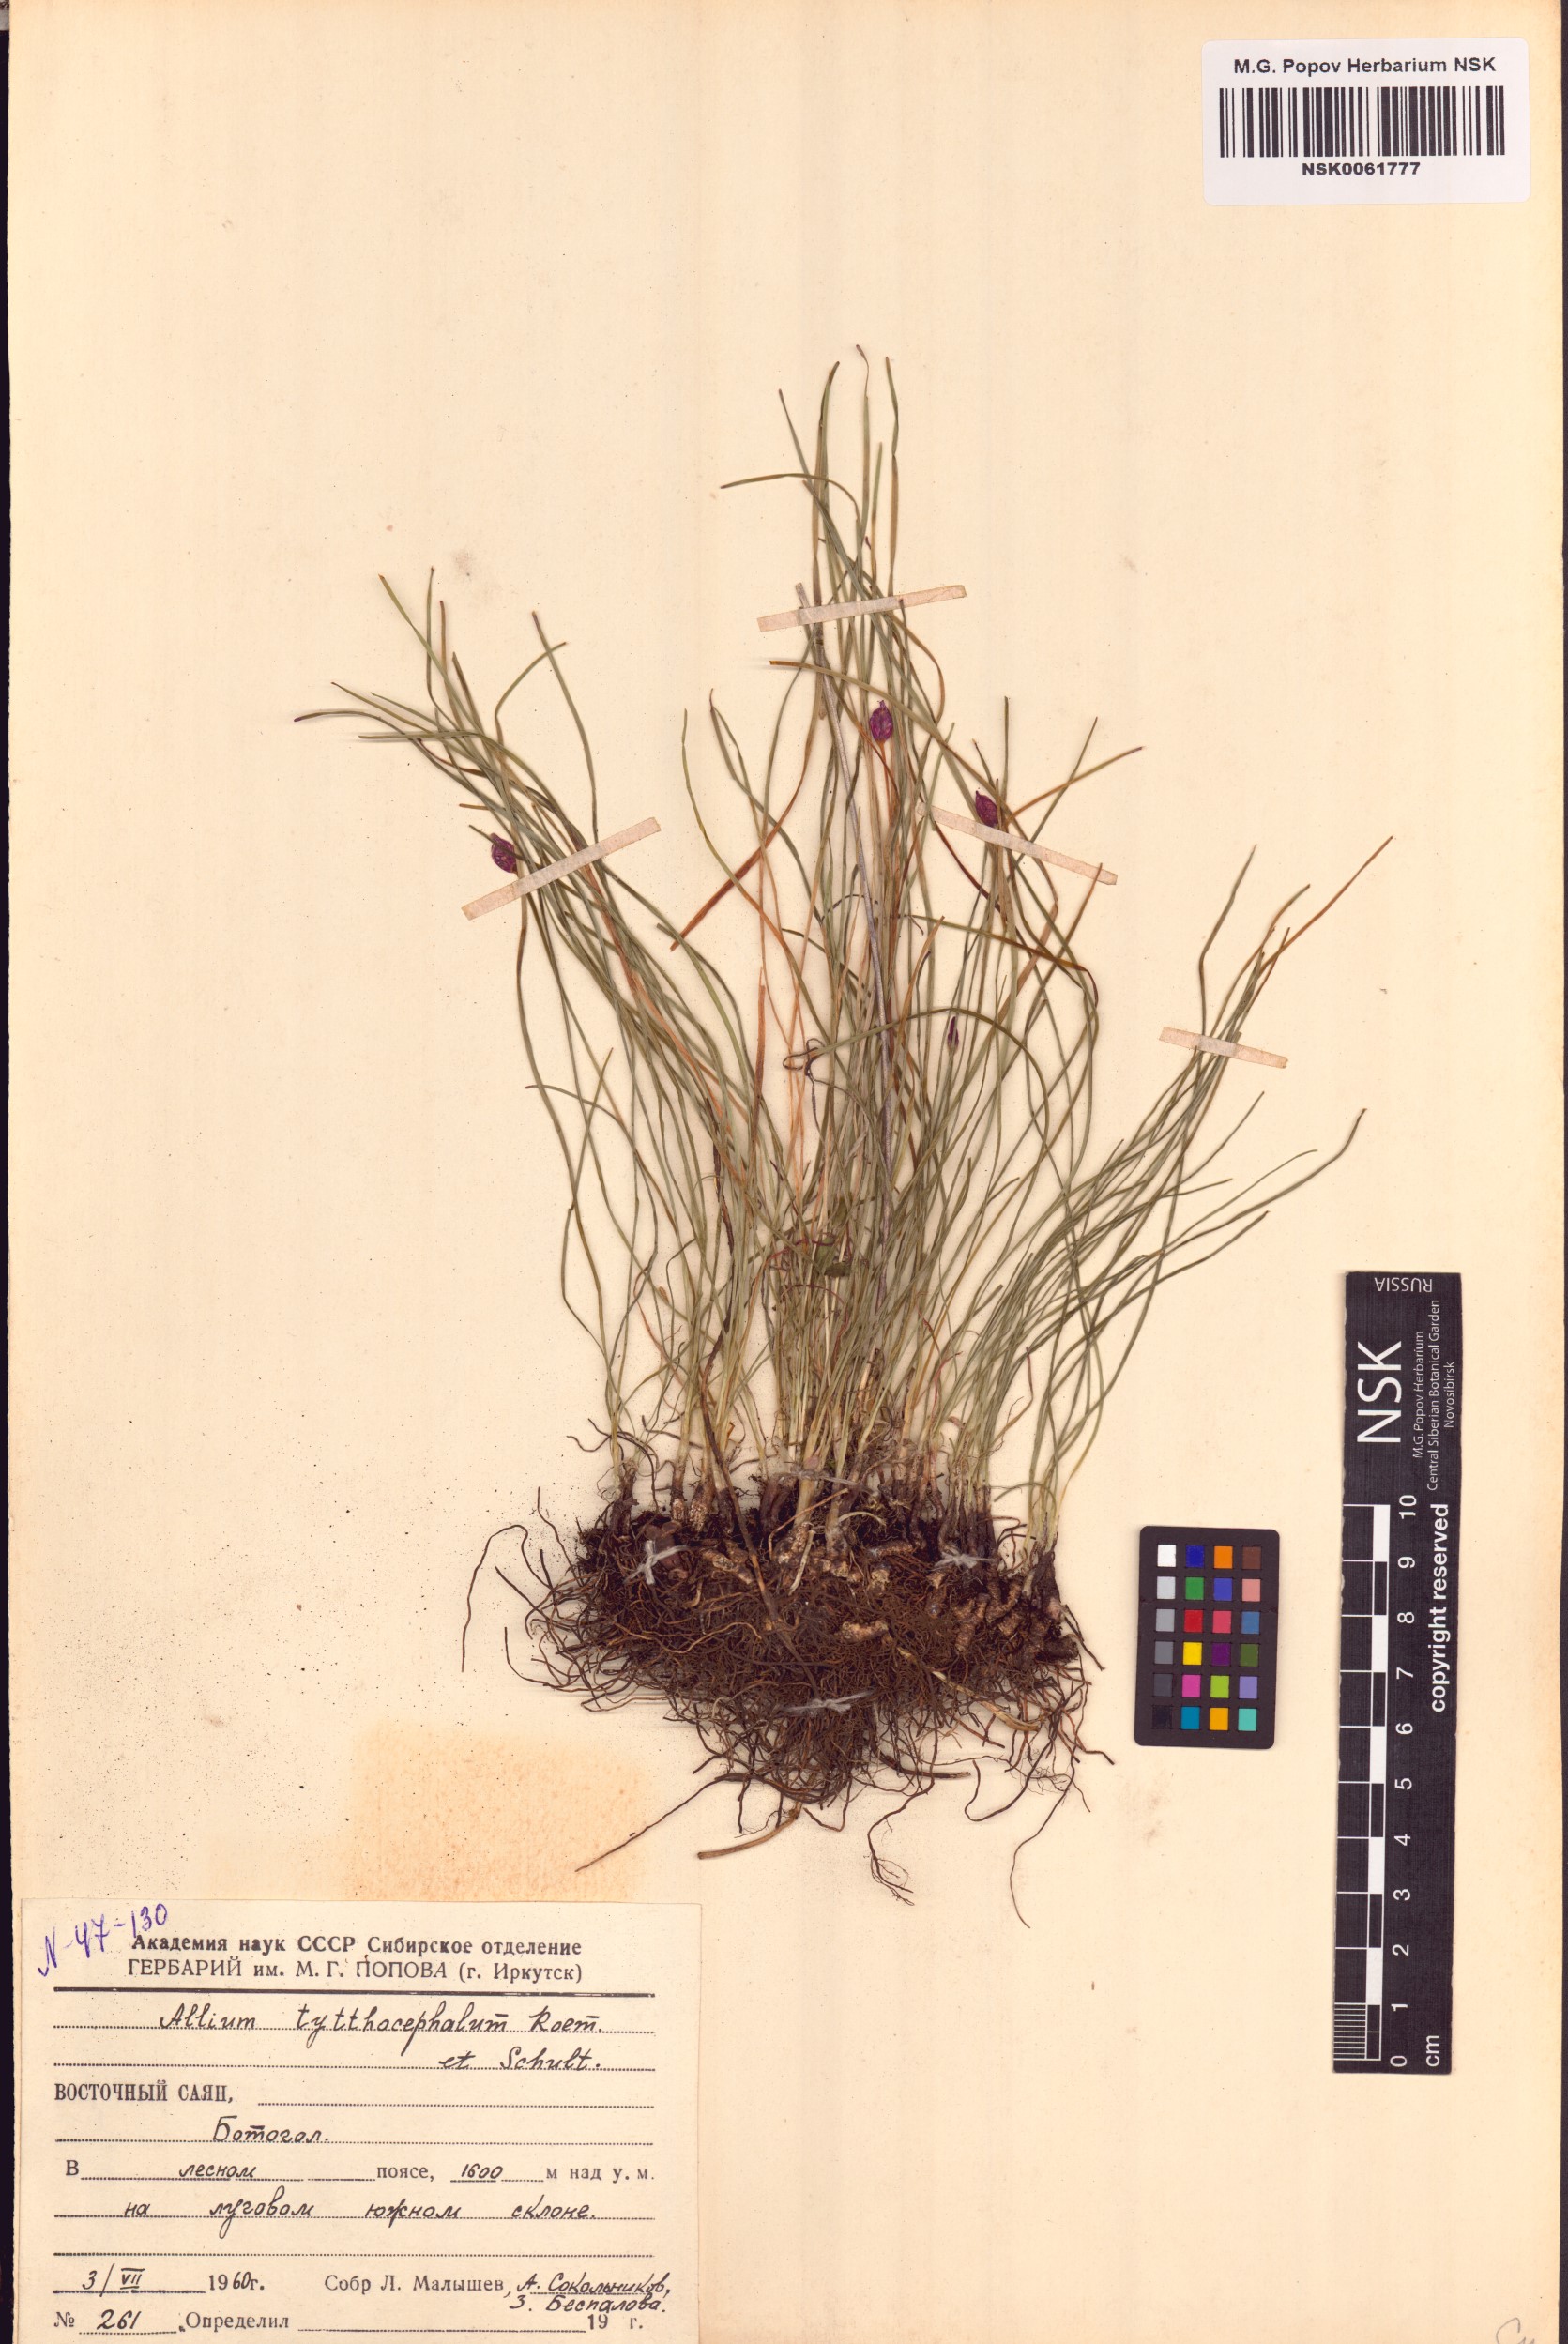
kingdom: Plantae
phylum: Tracheophyta
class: Liliopsida
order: Asparagales
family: Amaryllidaceae
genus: Allium
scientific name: Allium tytthocephalum
